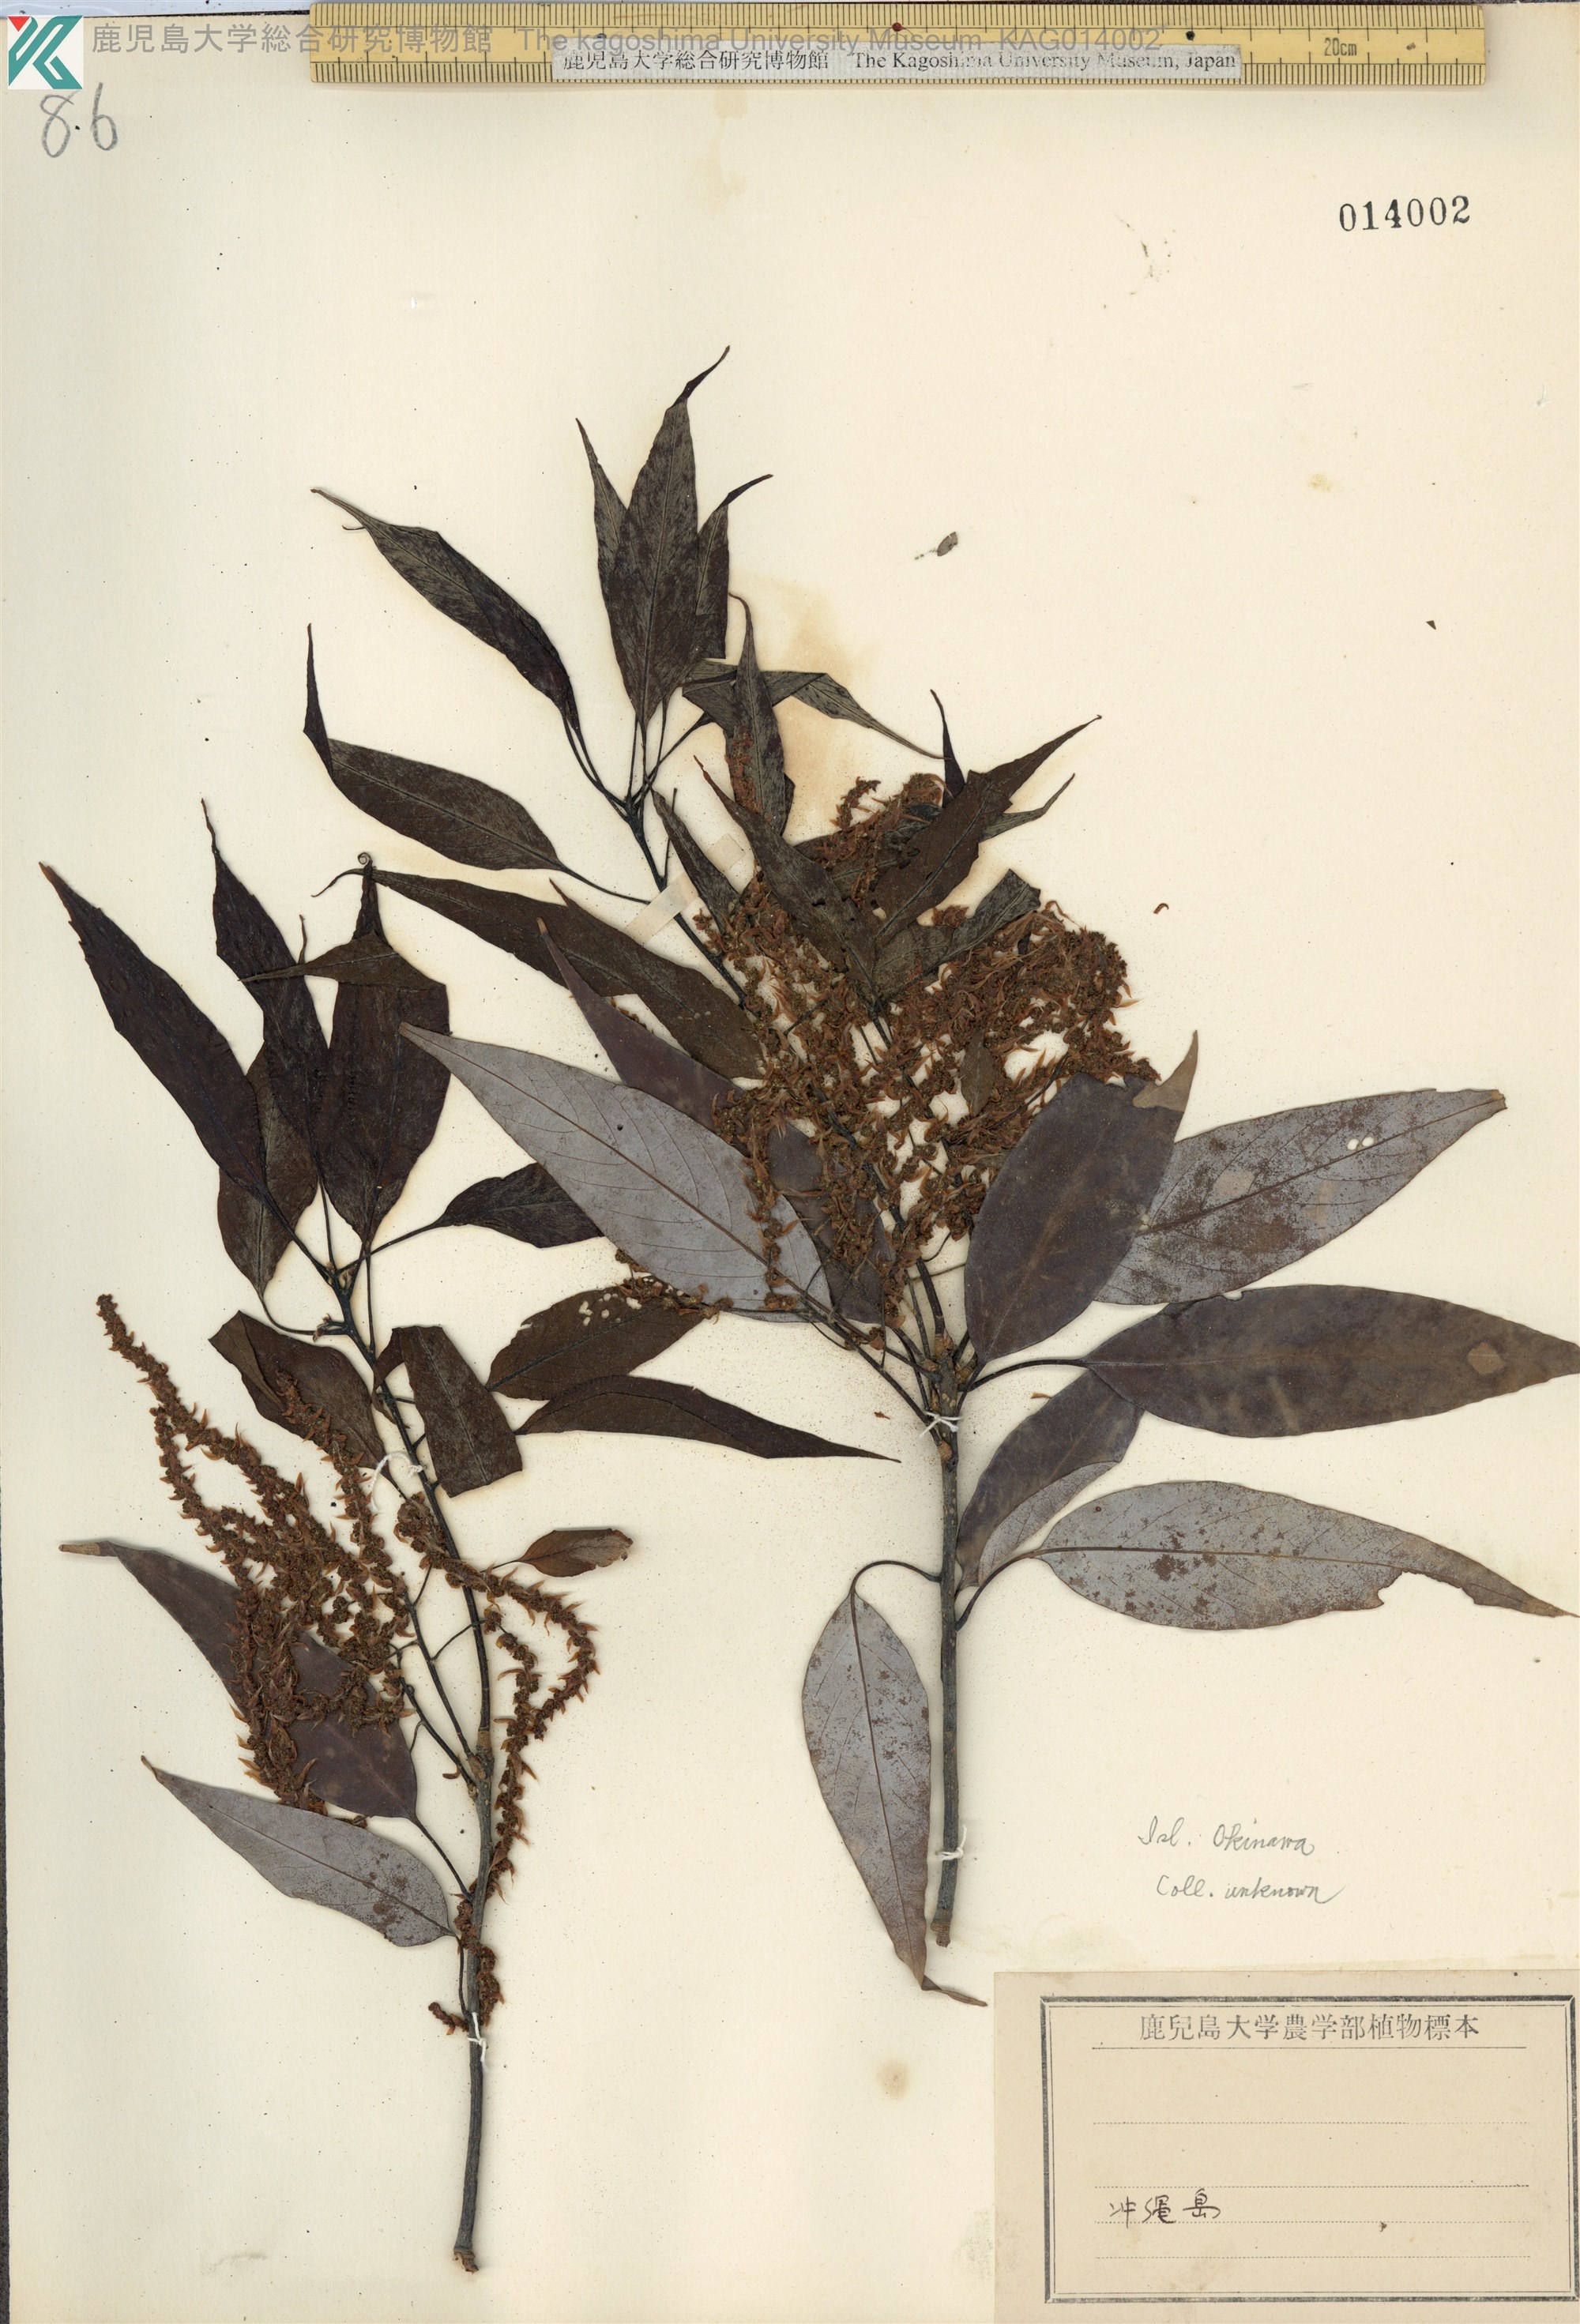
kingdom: Plantae
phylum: Tracheophyta
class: Magnoliopsida
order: Fagales
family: Fagaceae
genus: Quercus
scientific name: Quercus miyagii
